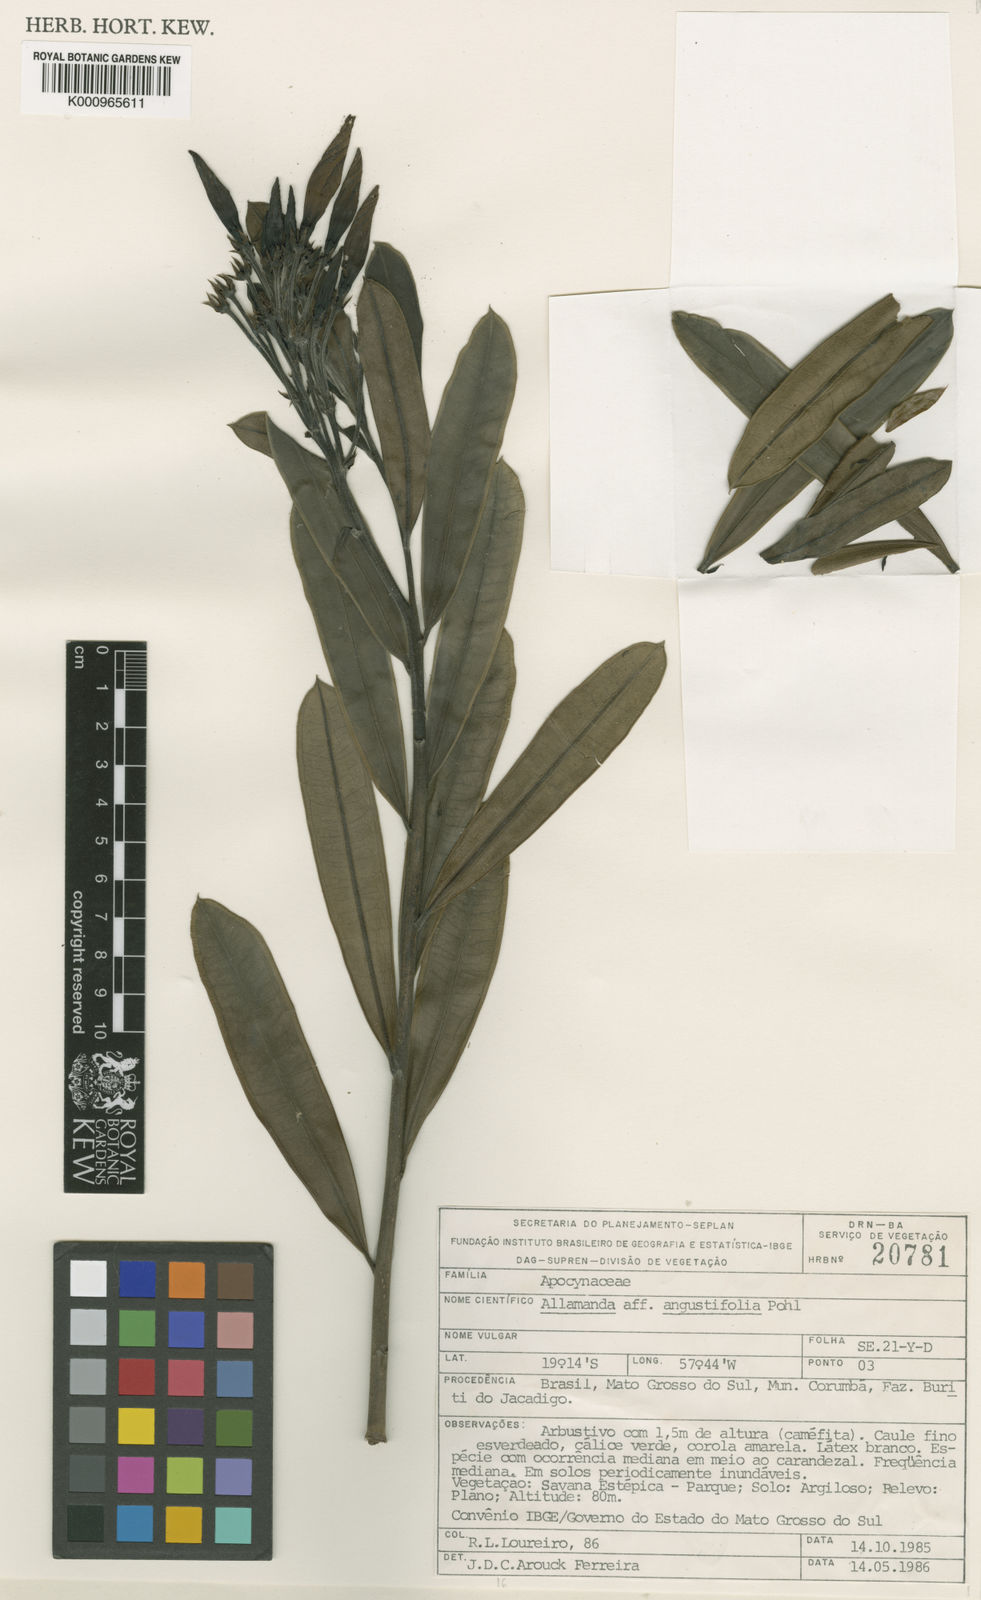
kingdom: Plantae
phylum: Tracheophyta
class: Magnoliopsida
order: Gentianales
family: Apocynaceae
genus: Allamanda
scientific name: Allamanda angustifolia
